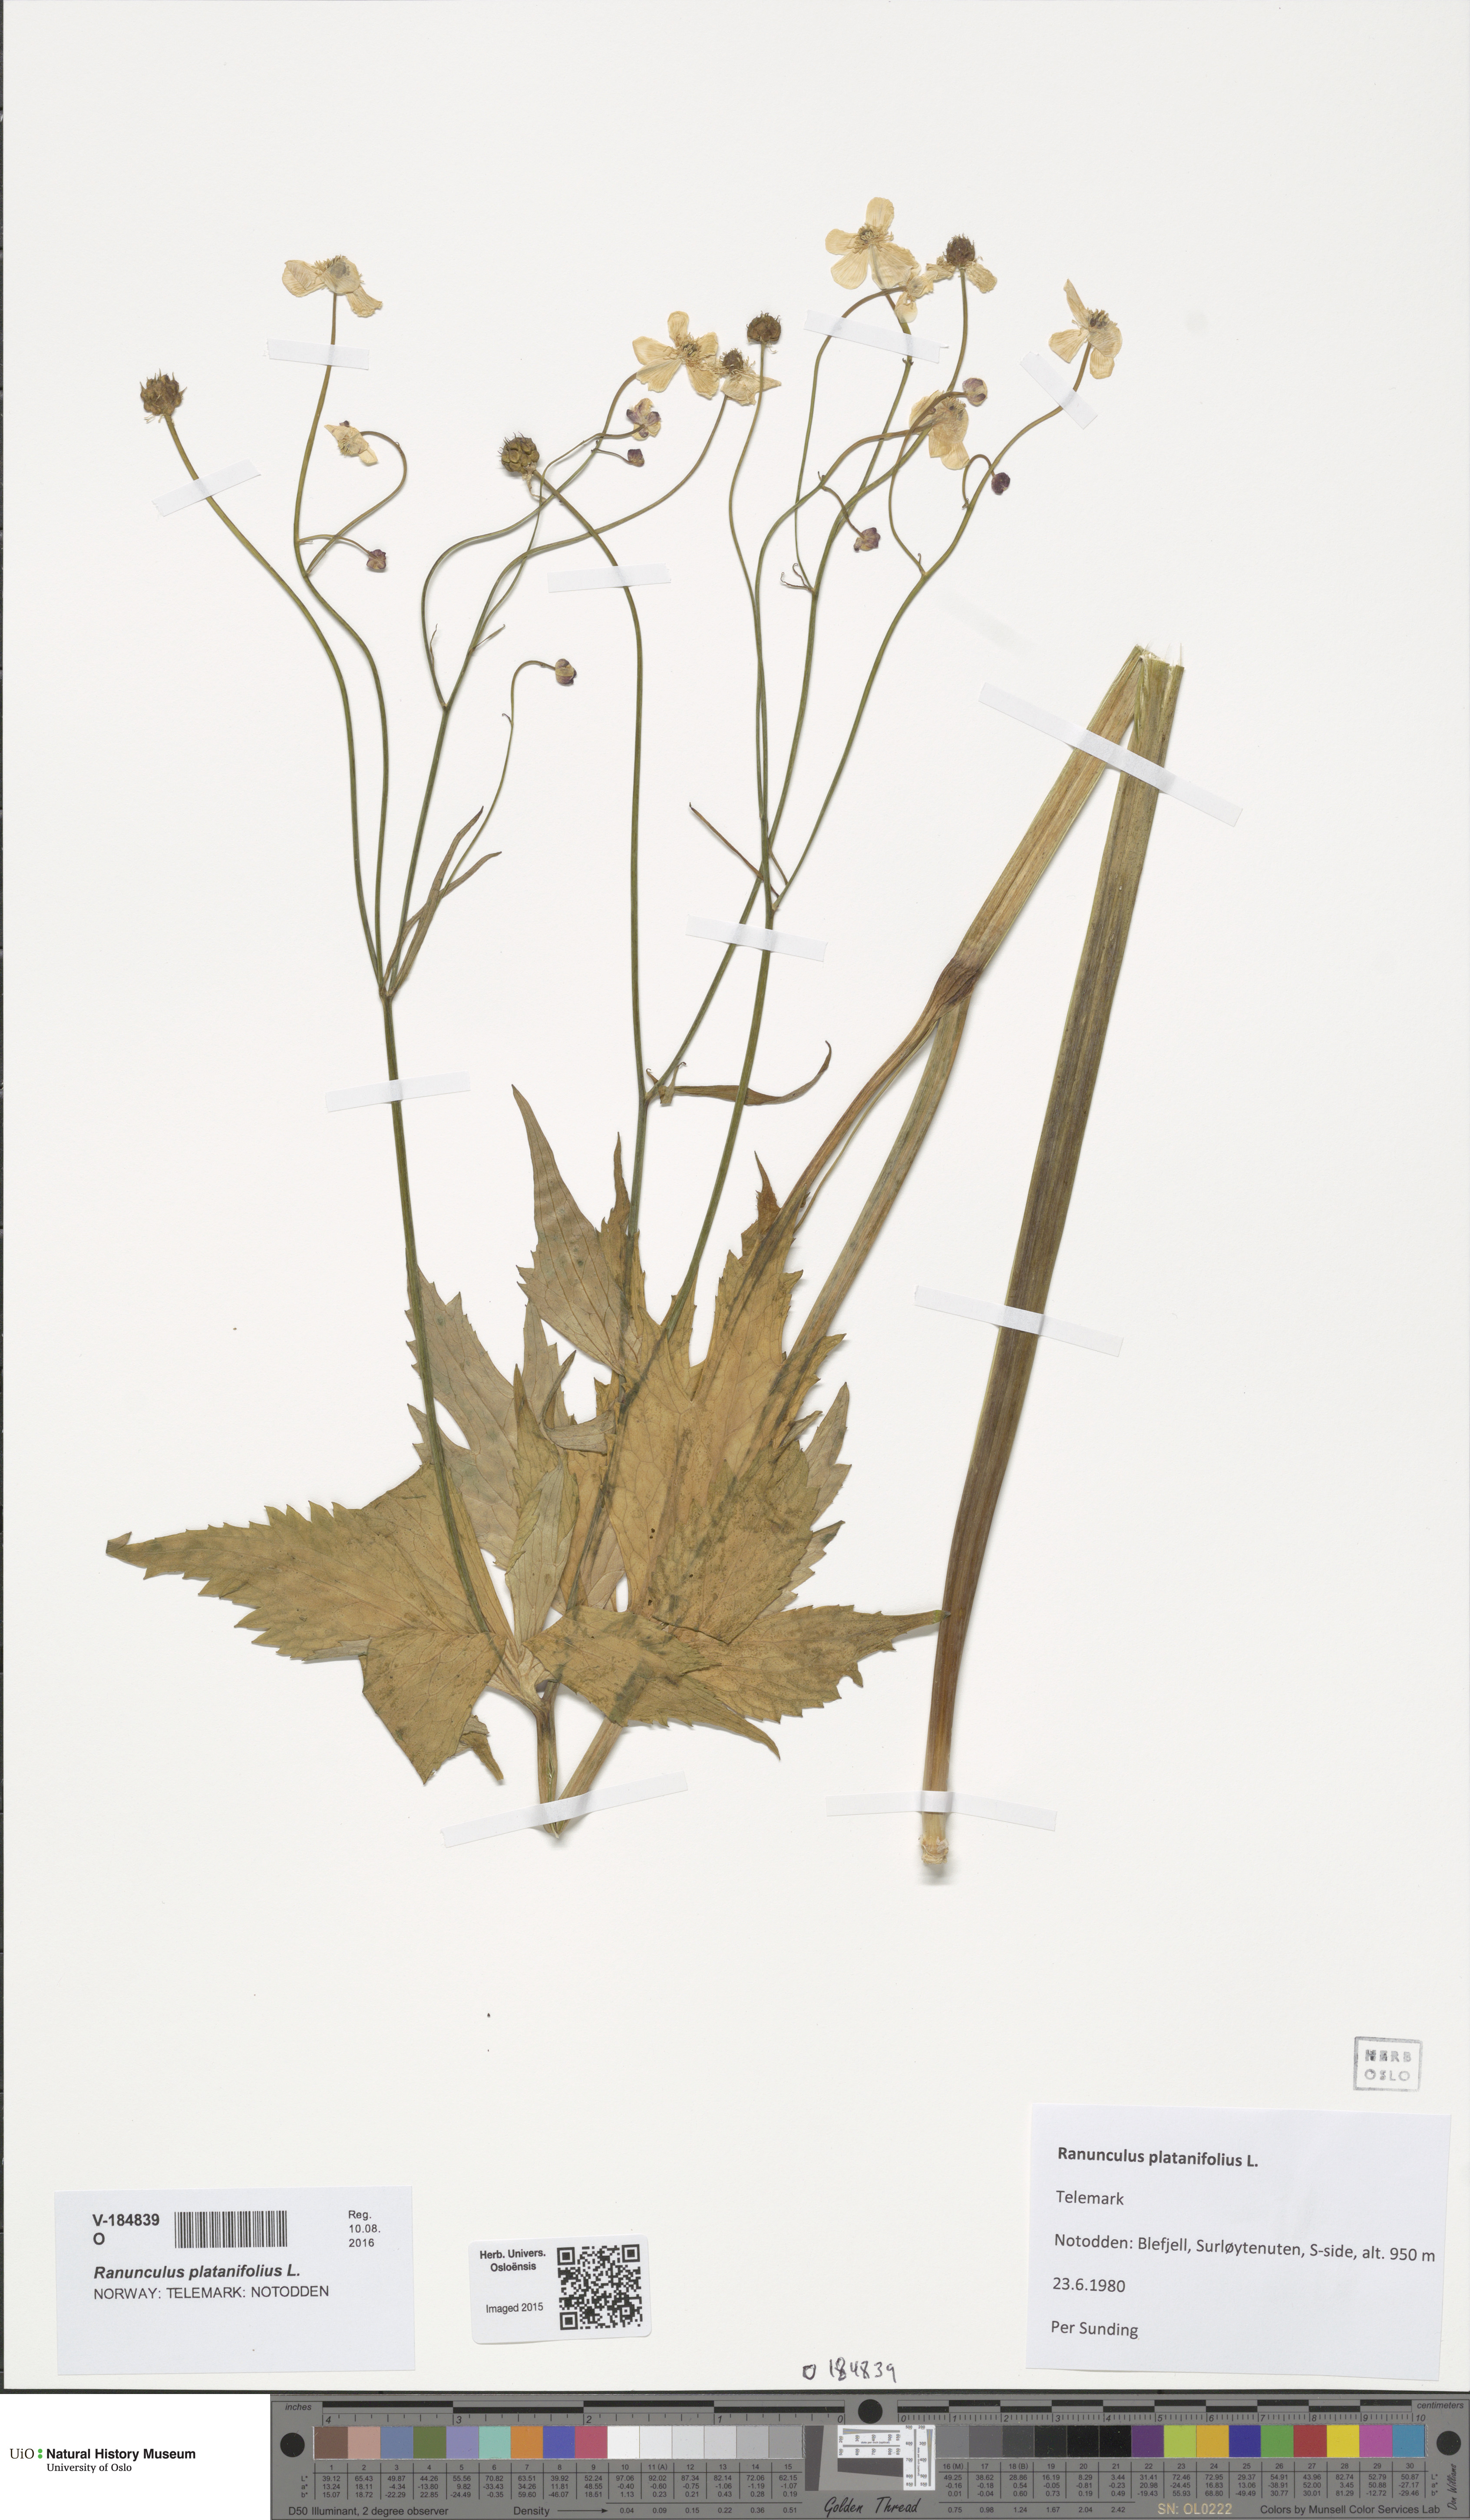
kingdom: Plantae
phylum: Tracheophyta
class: Magnoliopsida
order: Ranunculales
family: Ranunculaceae
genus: Ranunculus
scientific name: Ranunculus platanifolius
